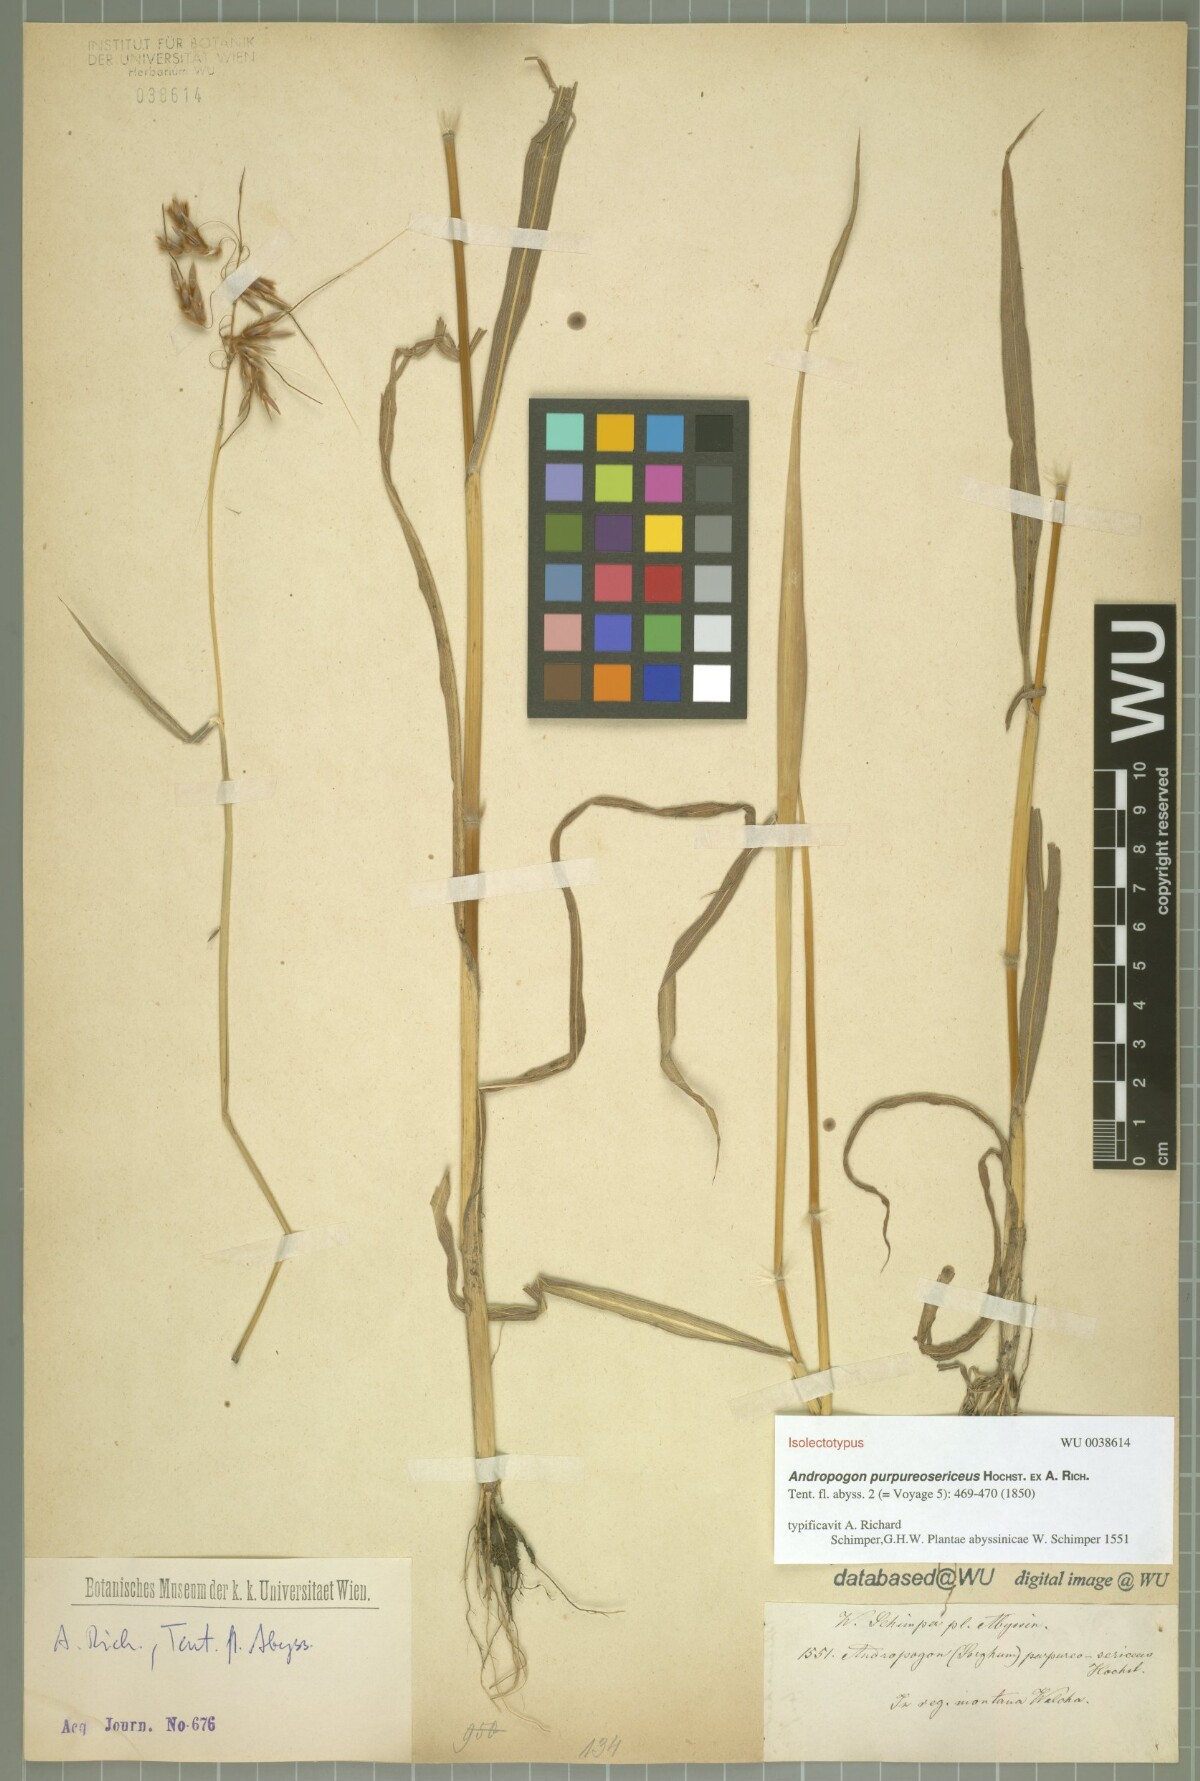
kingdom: Plantae
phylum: Tracheophyta
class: Liliopsida
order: Poales
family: Poaceae
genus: Sarga
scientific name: Sarga purpureosericea
